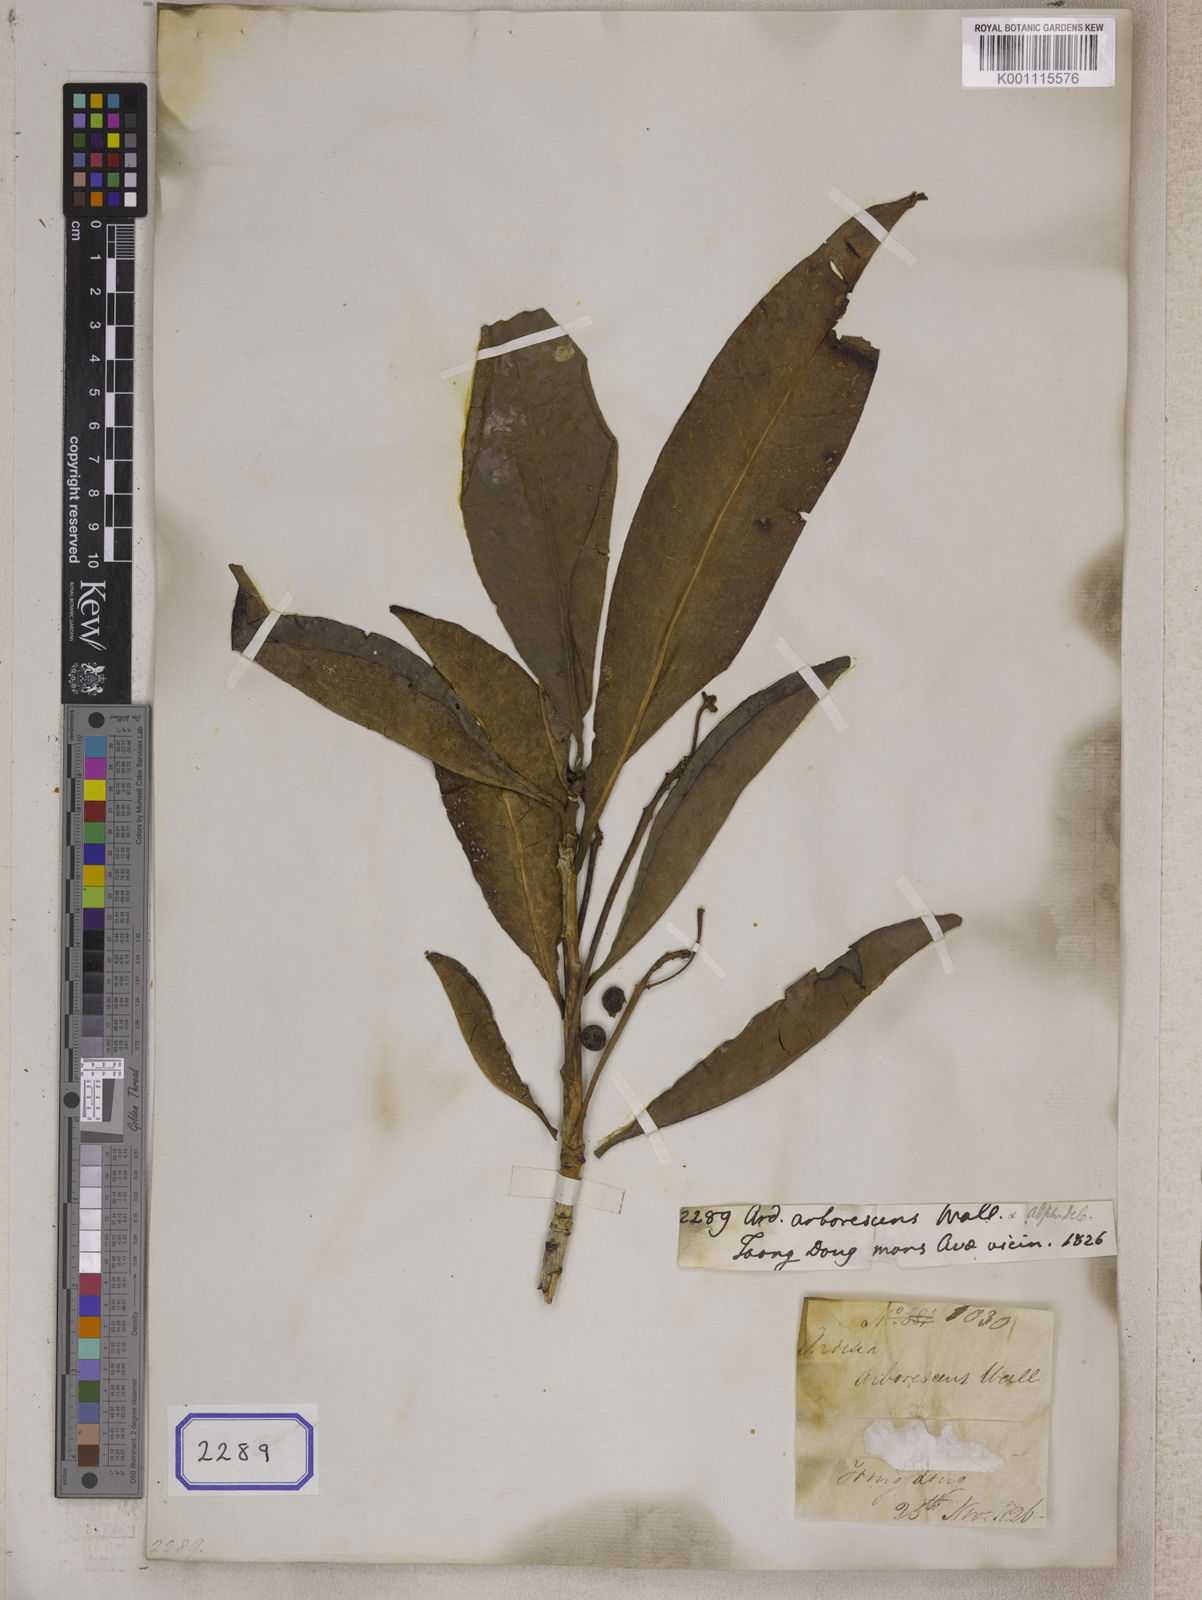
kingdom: Plantae
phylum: Tracheophyta
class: Magnoliopsida
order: Ericales
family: Primulaceae
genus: Ardisia
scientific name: Ardisia
